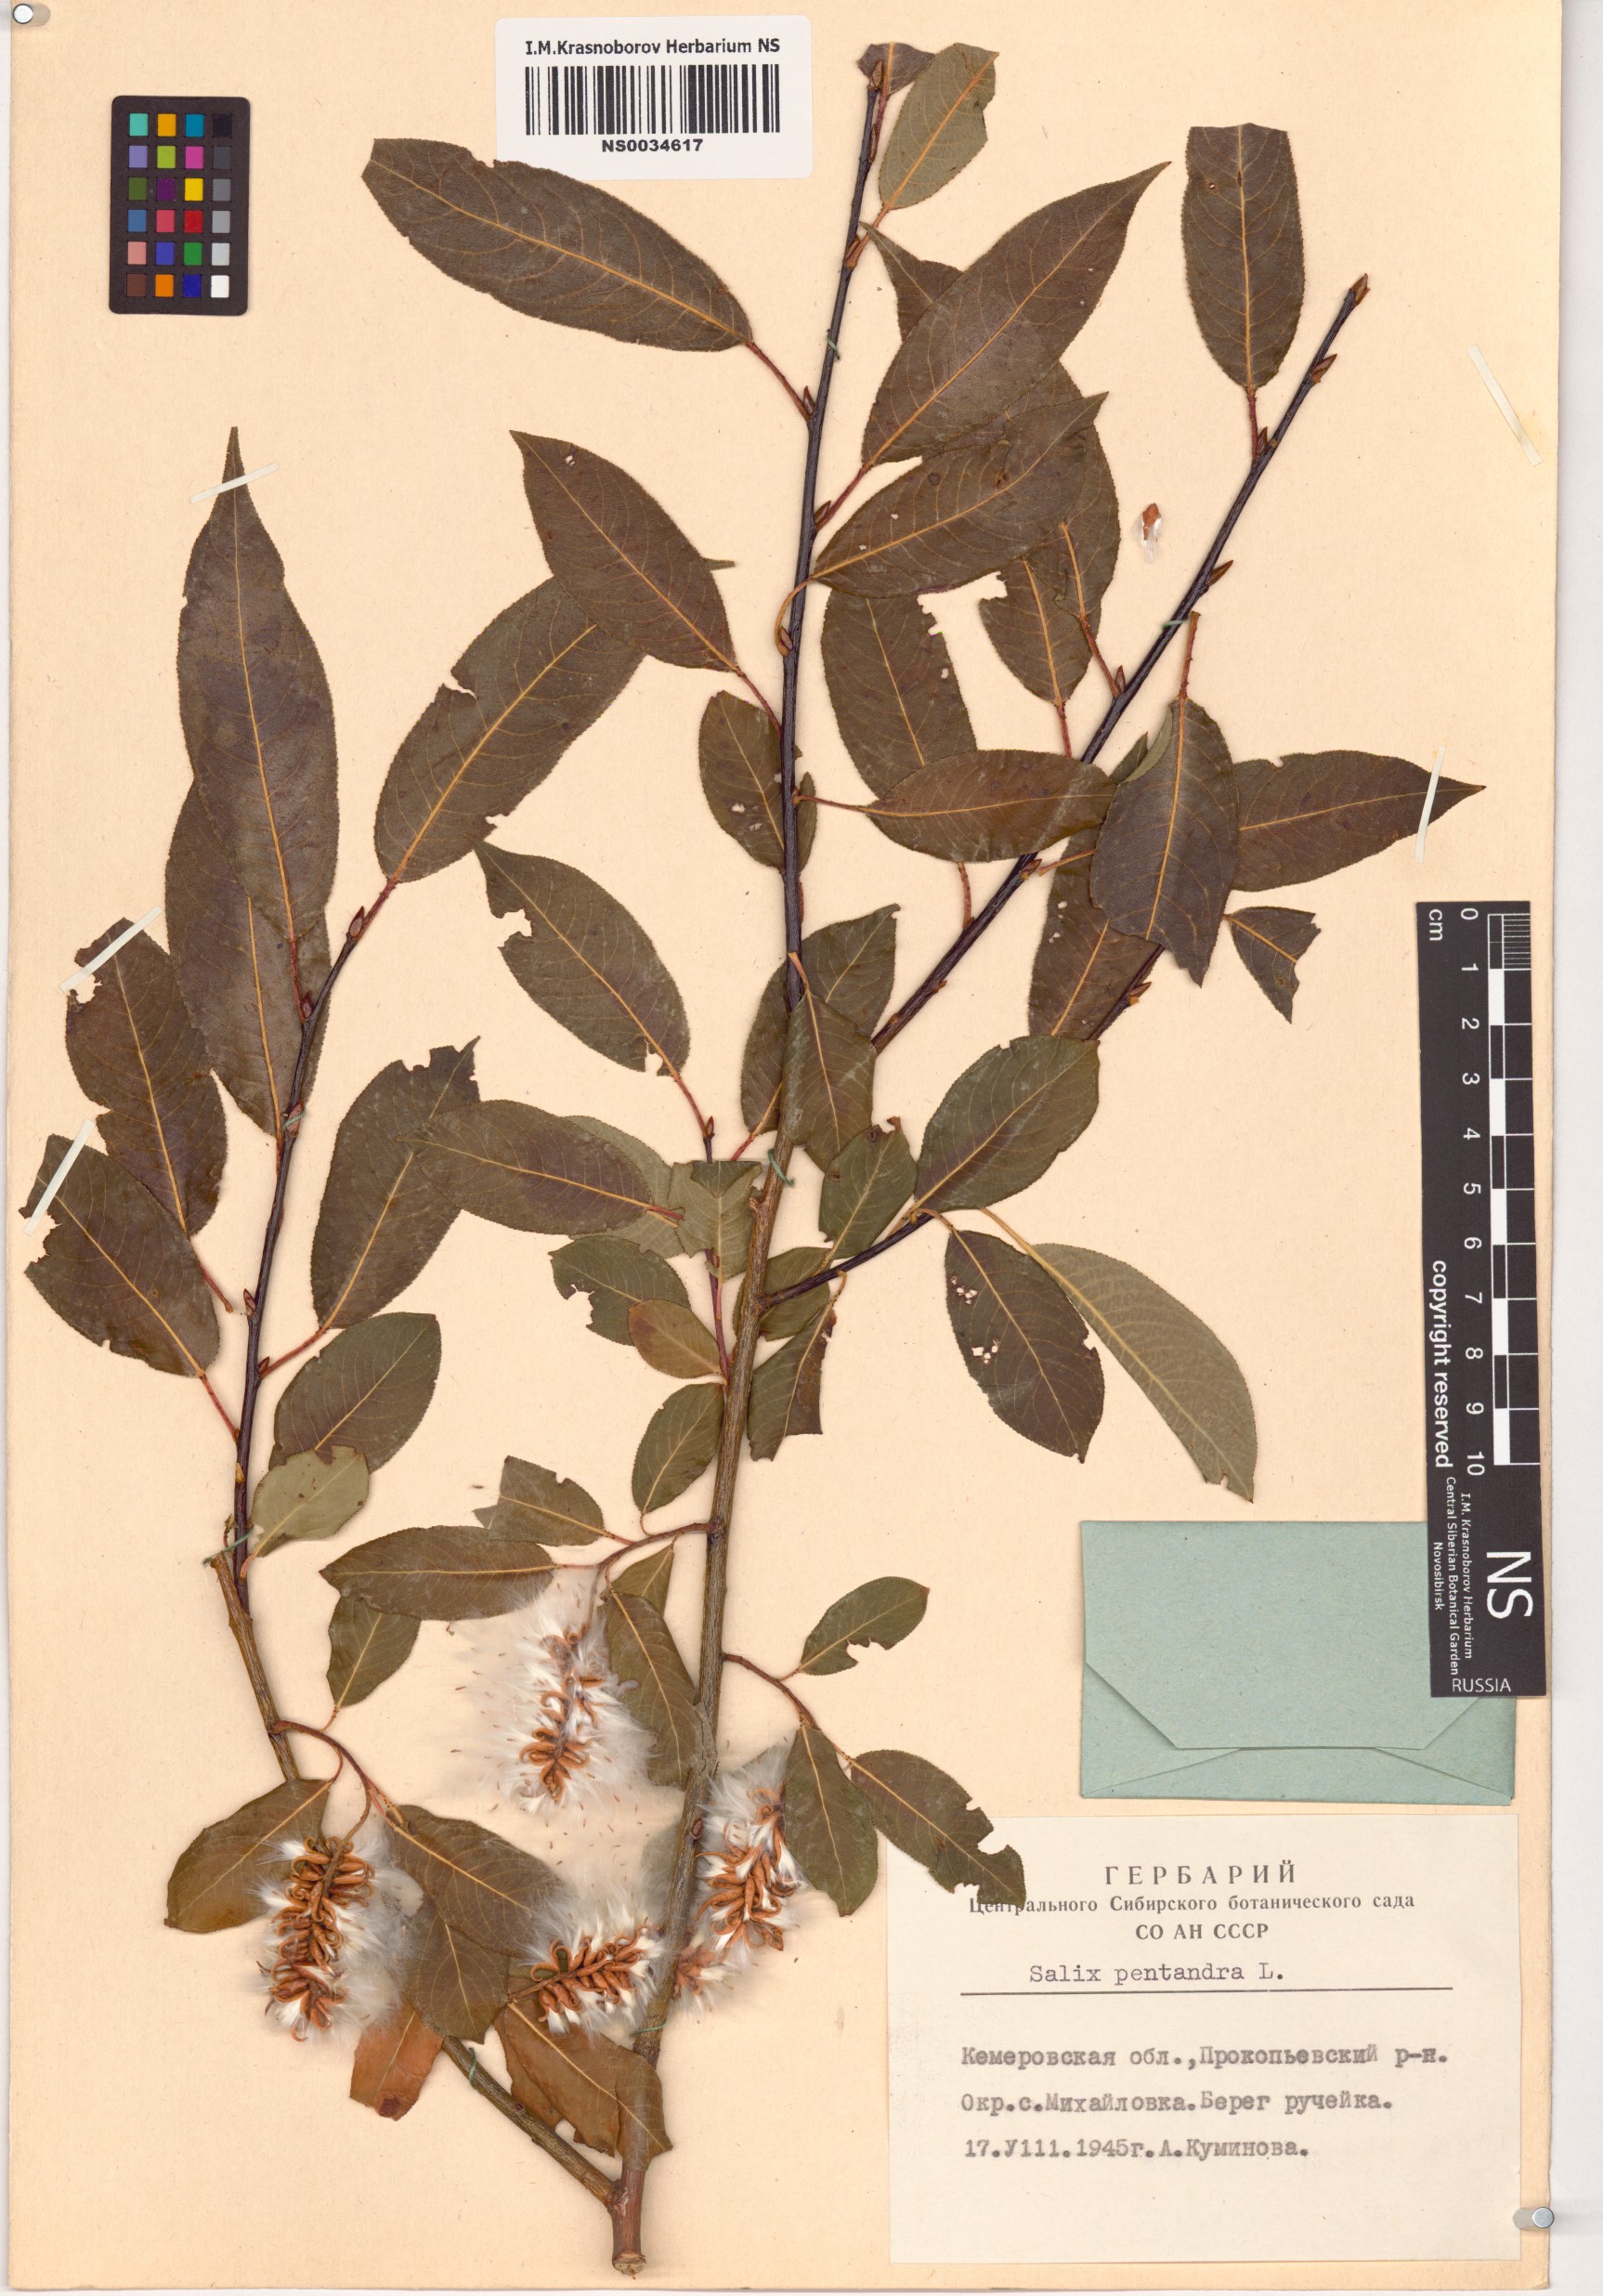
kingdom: Plantae
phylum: Tracheophyta
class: Magnoliopsida
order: Malpighiales
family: Salicaceae
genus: Salix
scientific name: Salix pentandra
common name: Bay willow
